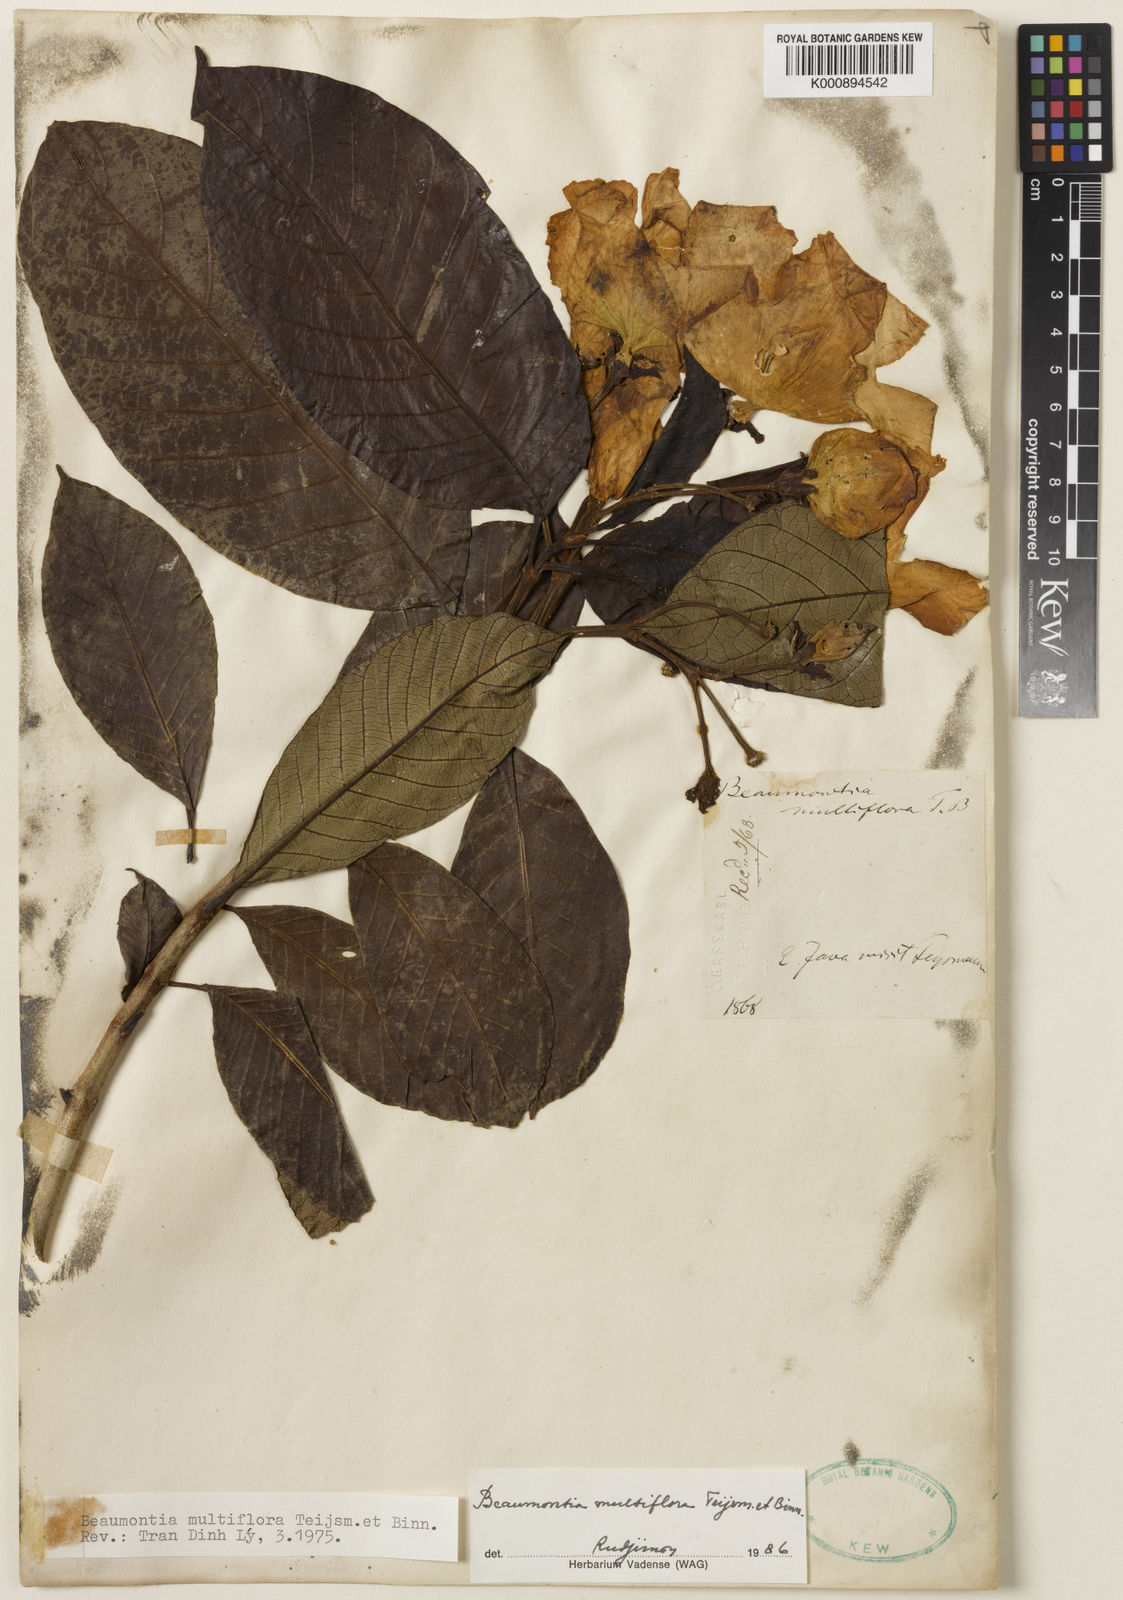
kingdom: Plantae
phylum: Tracheophyta
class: Magnoliopsida
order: Gentianales
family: Apocynaceae
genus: Beaumontia
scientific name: Beaumontia multiflora
